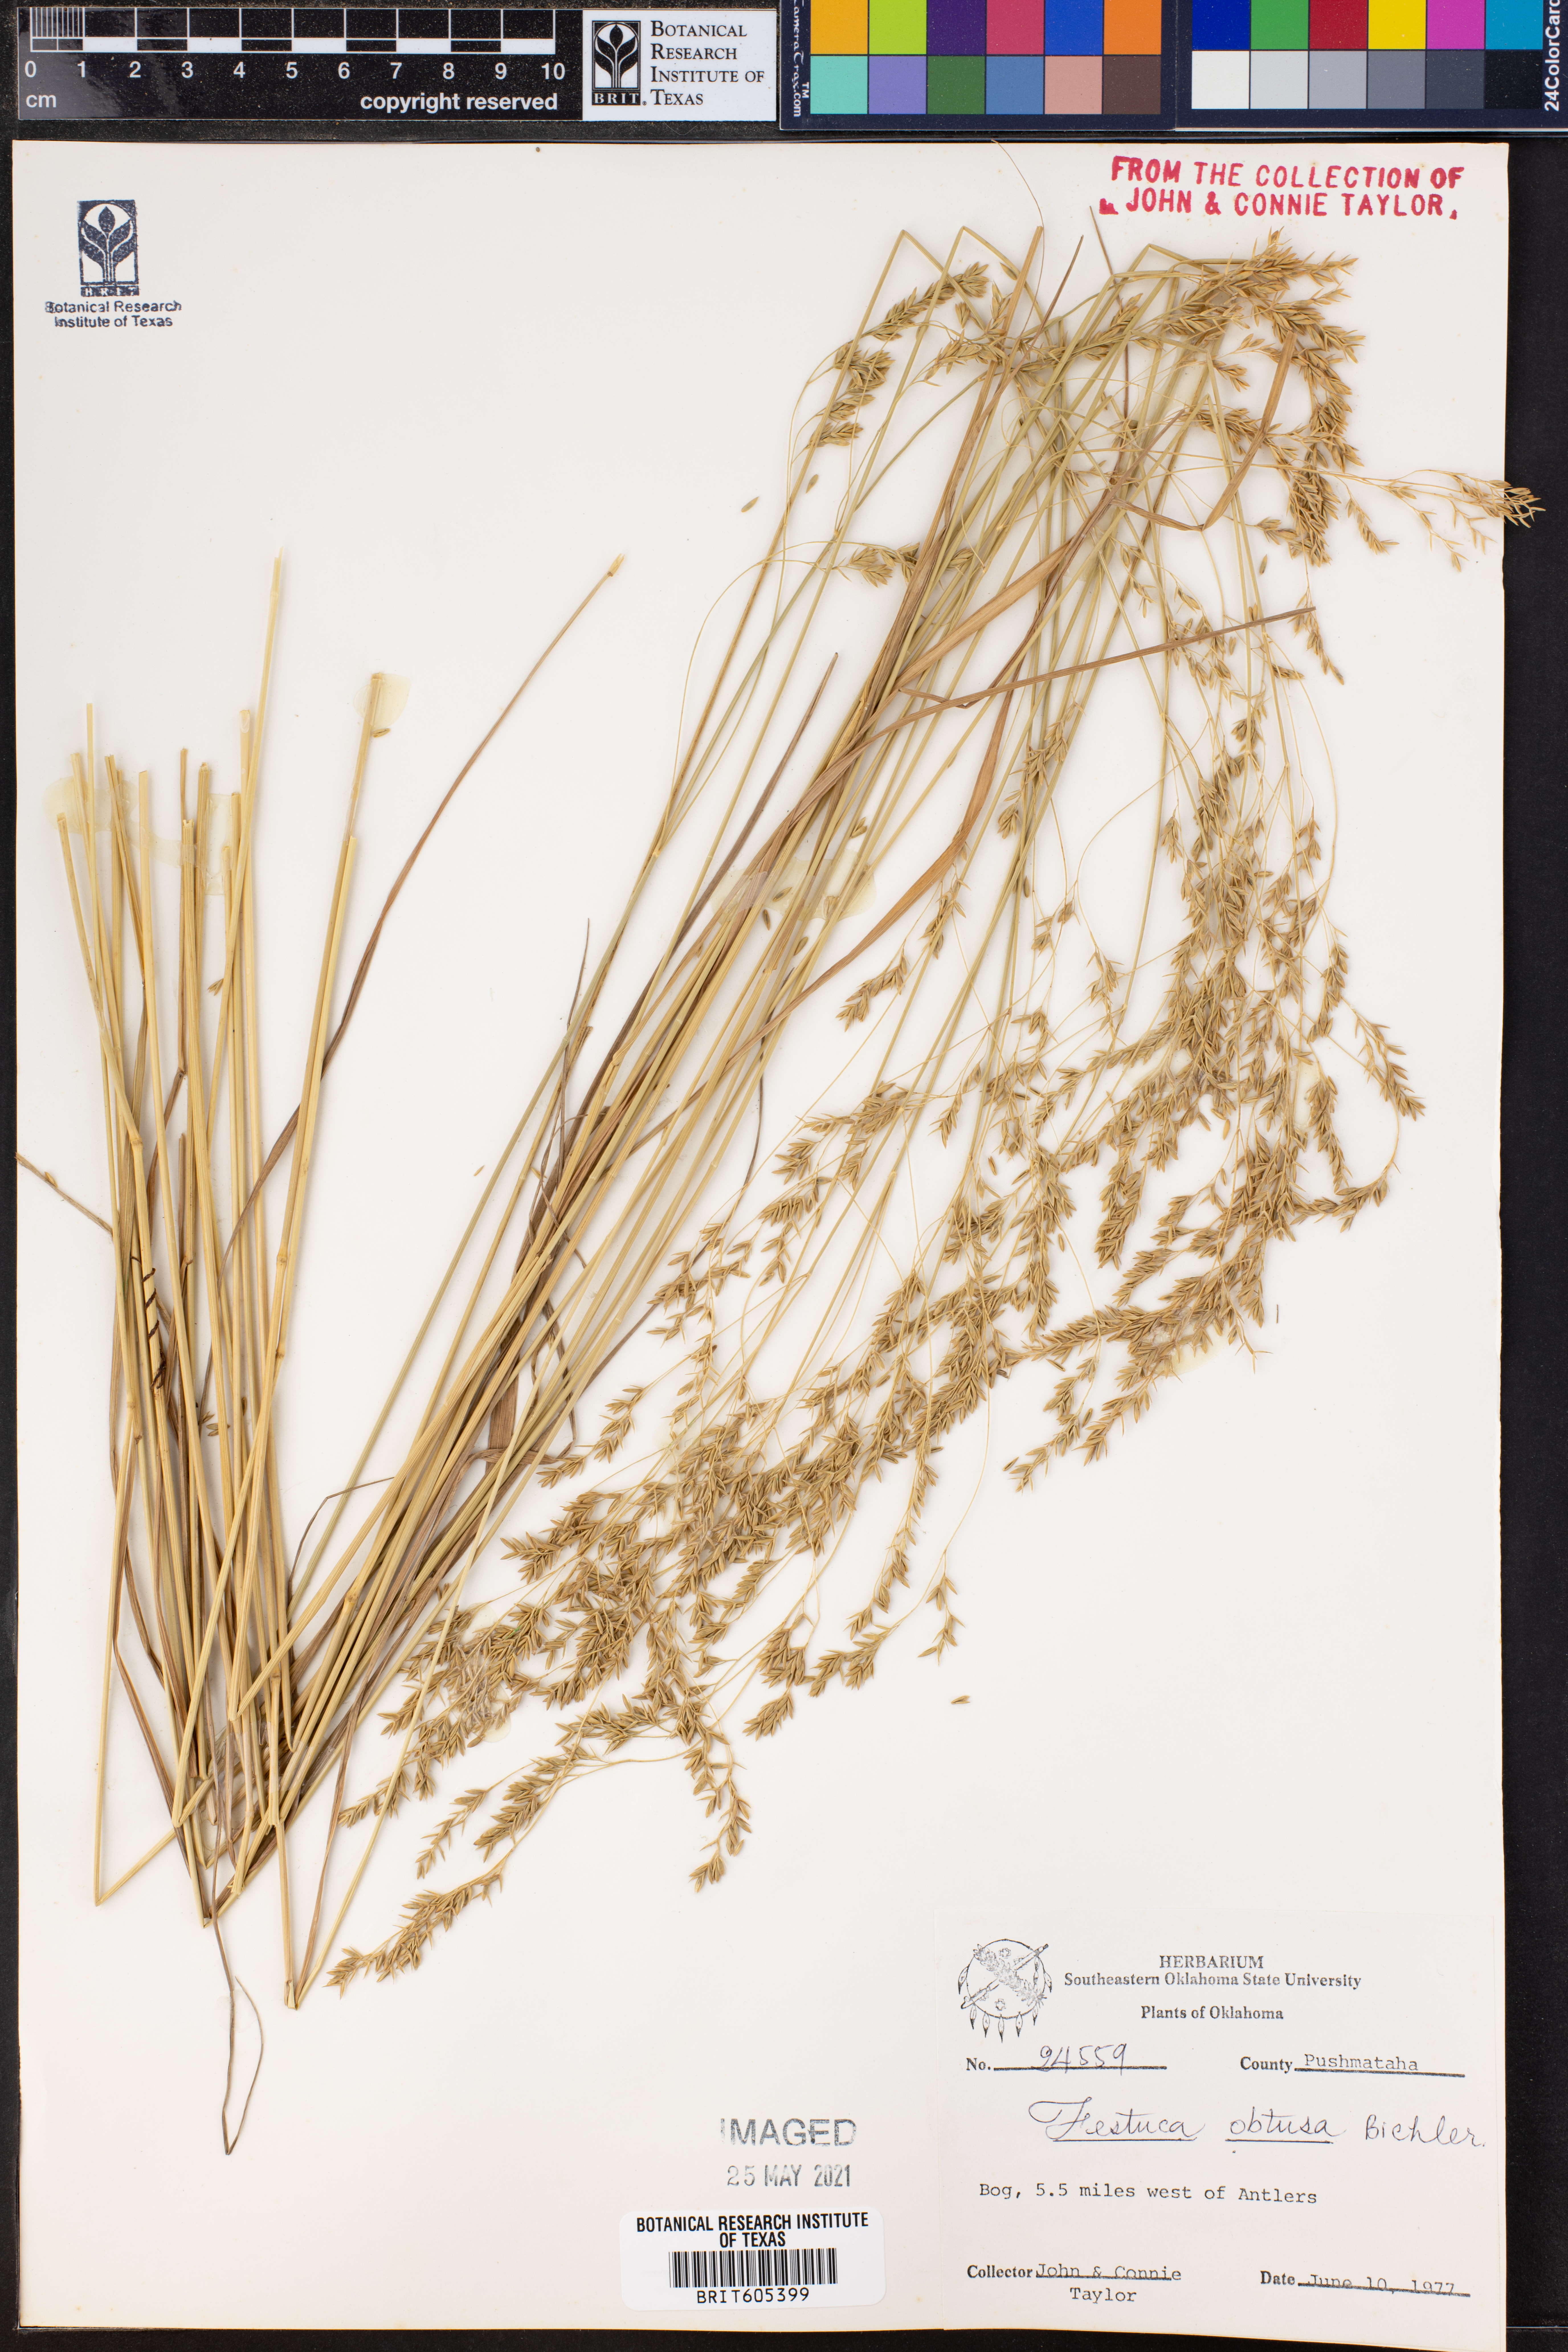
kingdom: Plantae
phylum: Tracheophyta
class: Liliopsida
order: Poales
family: Poaceae
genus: Festuca
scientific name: Festuca subverticillata
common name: Nodding fescue
